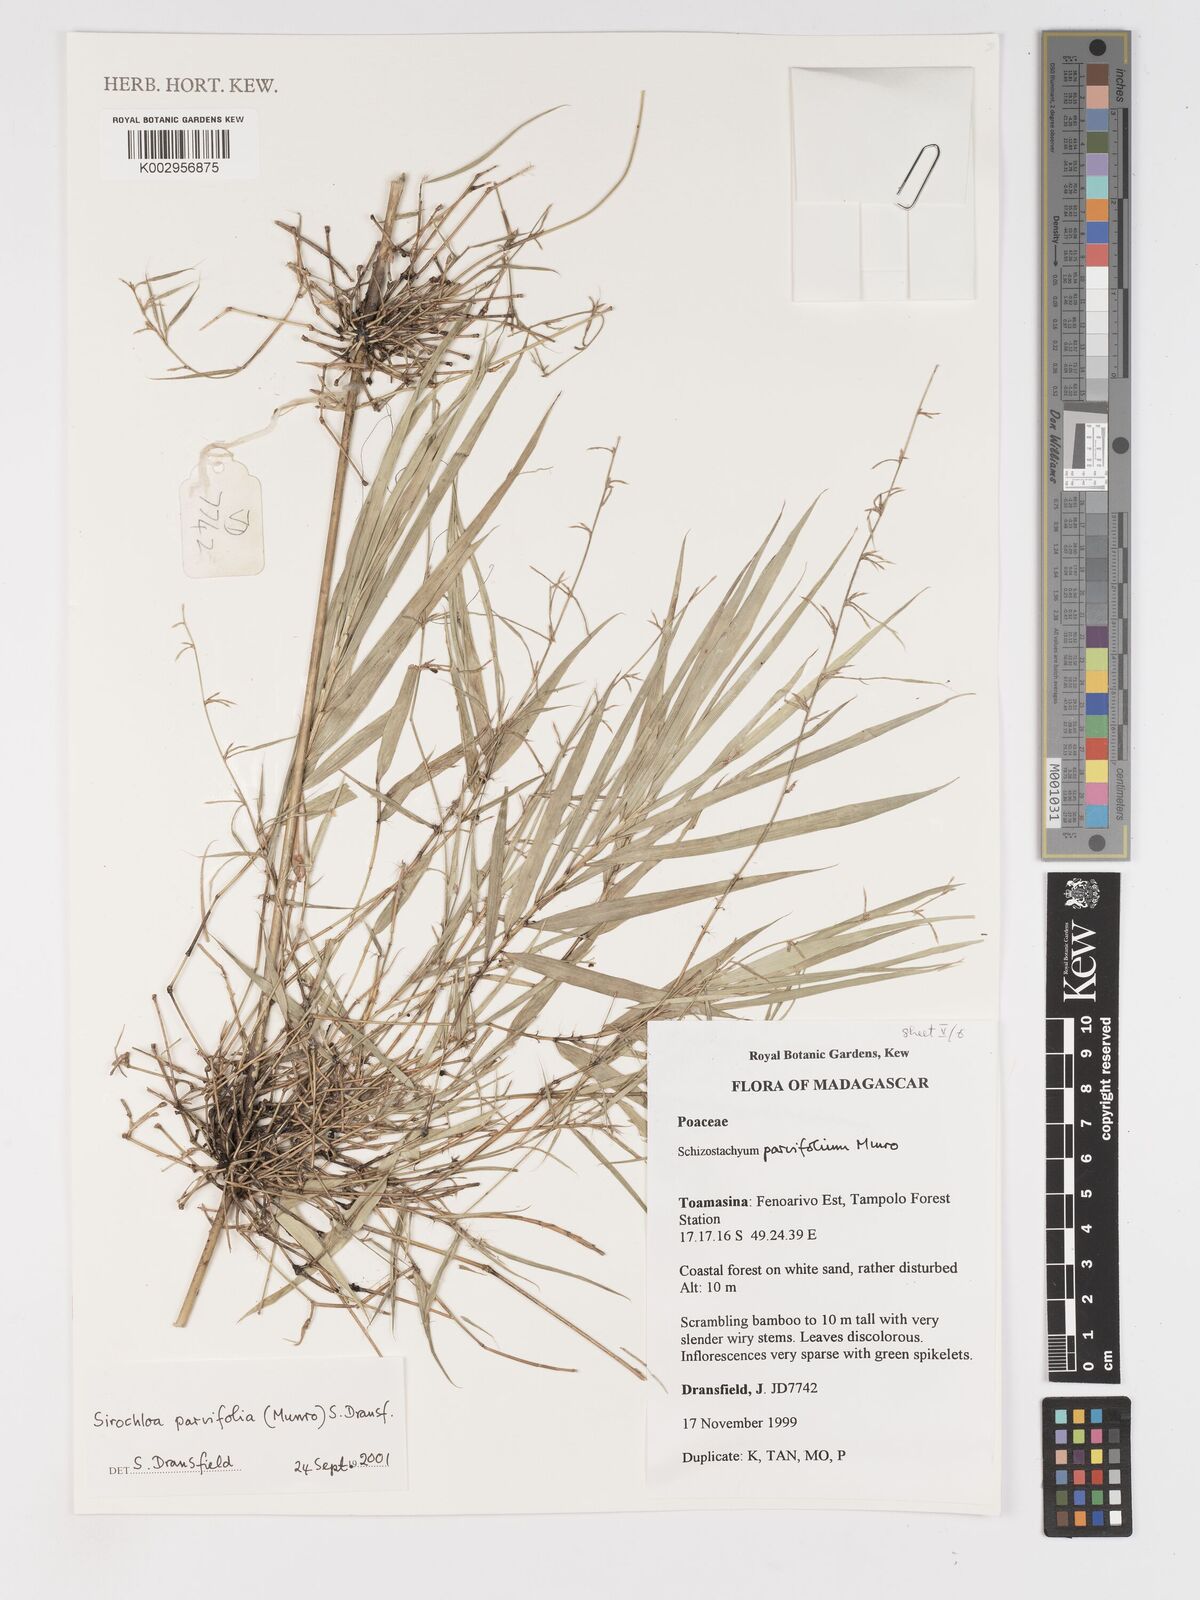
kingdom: Plantae
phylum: Tracheophyta
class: Liliopsida
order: Poales
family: Poaceae
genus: Sirochloa
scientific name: Sirochloa parvifolia
